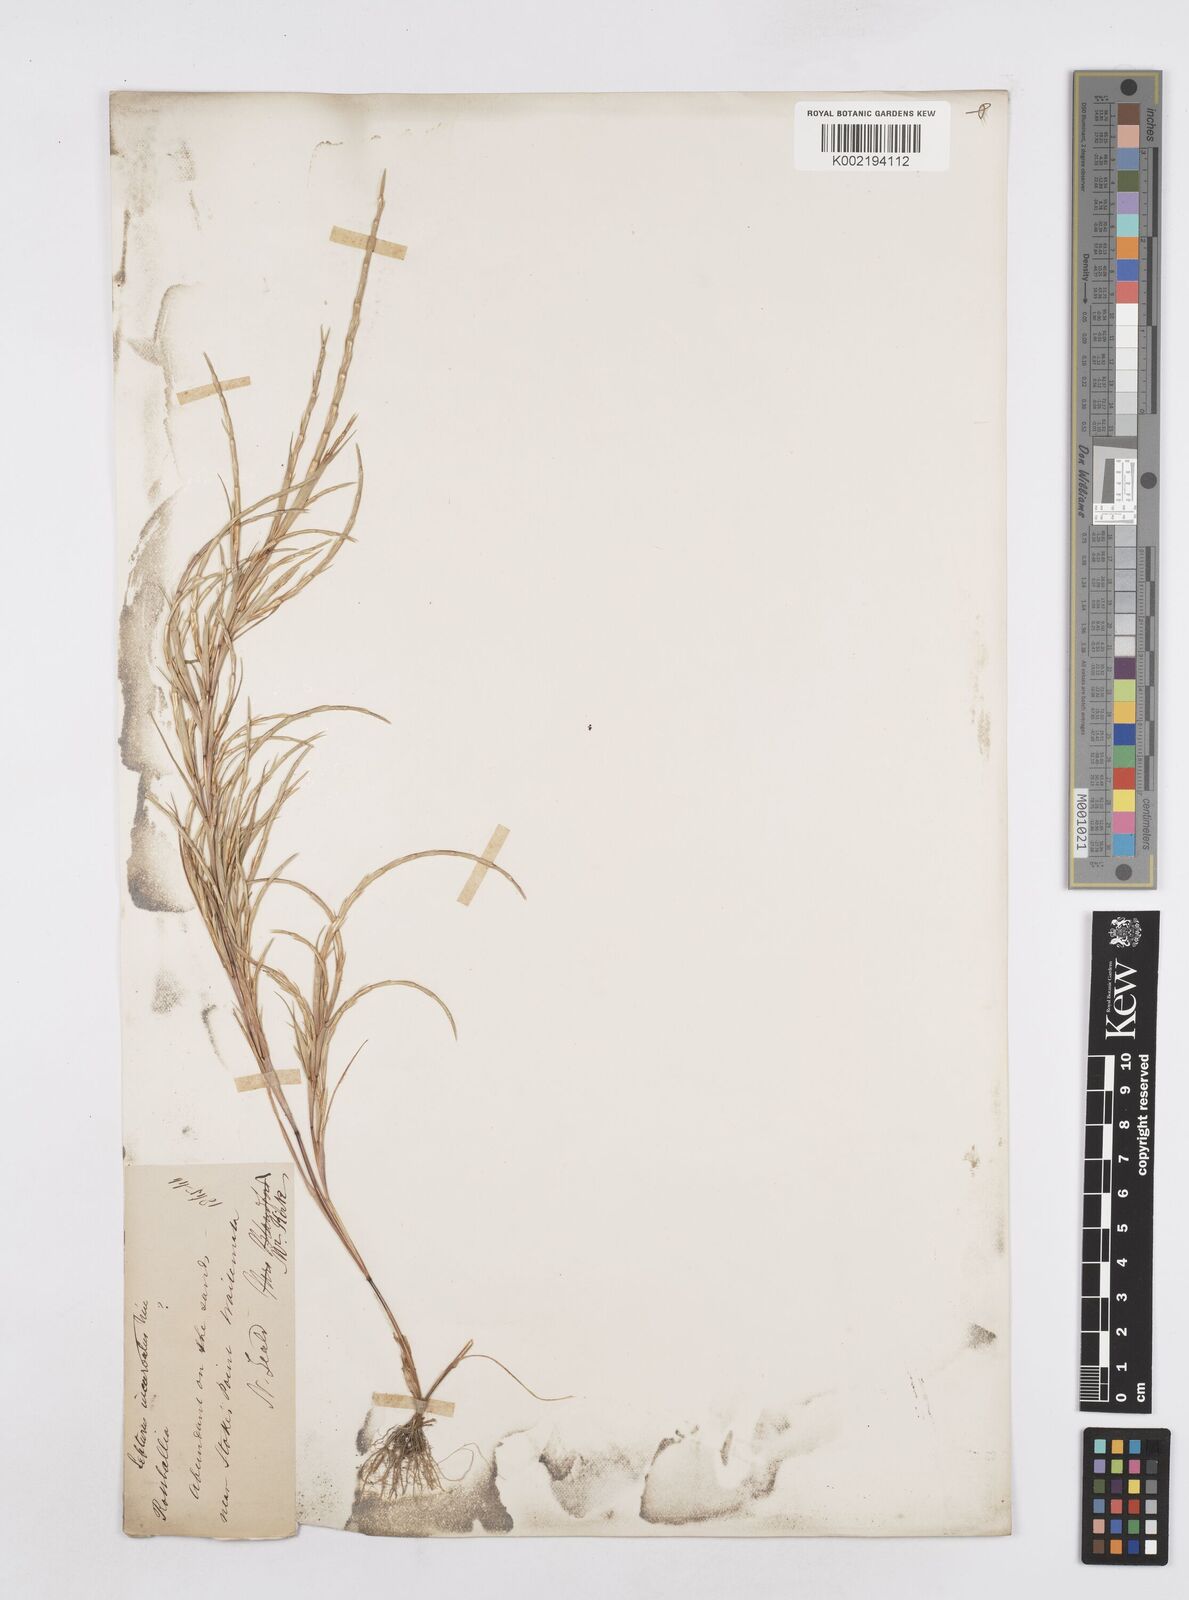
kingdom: Plantae
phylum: Tracheophyta
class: Liliopsida
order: Poales
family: Poaceae
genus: Parapholis
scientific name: Parapholis incurva
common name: Curved sicklegrass
